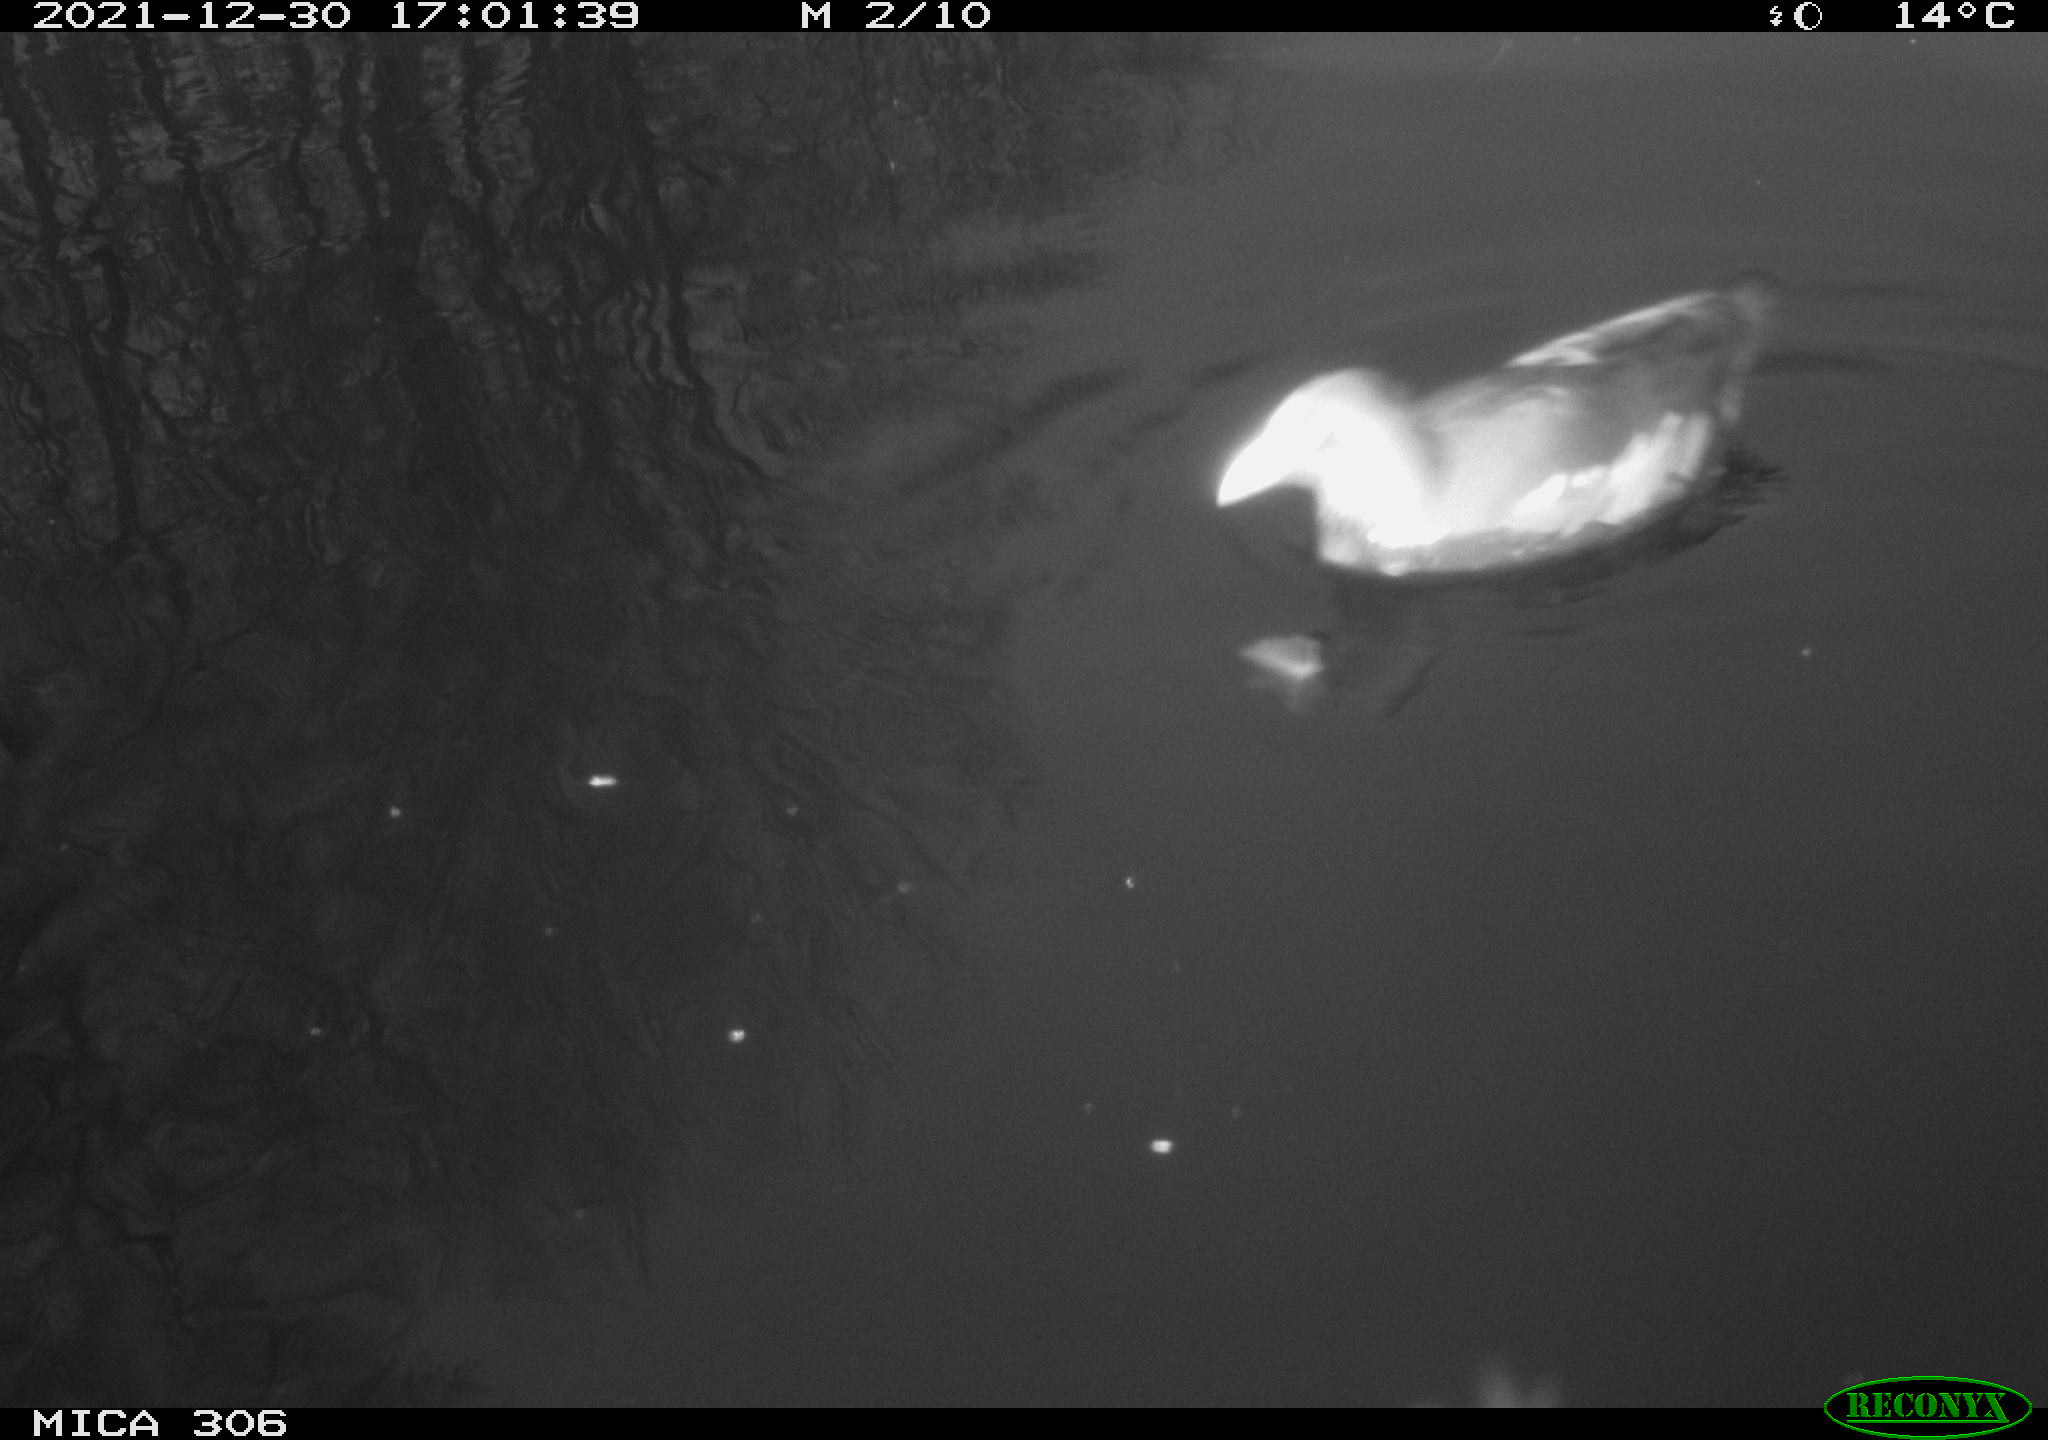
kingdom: Animalia
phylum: Chordata
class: Aves
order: Gruiformes
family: Rallidae
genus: Gallinula
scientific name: Gallinula chloropus
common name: Common moorhen
